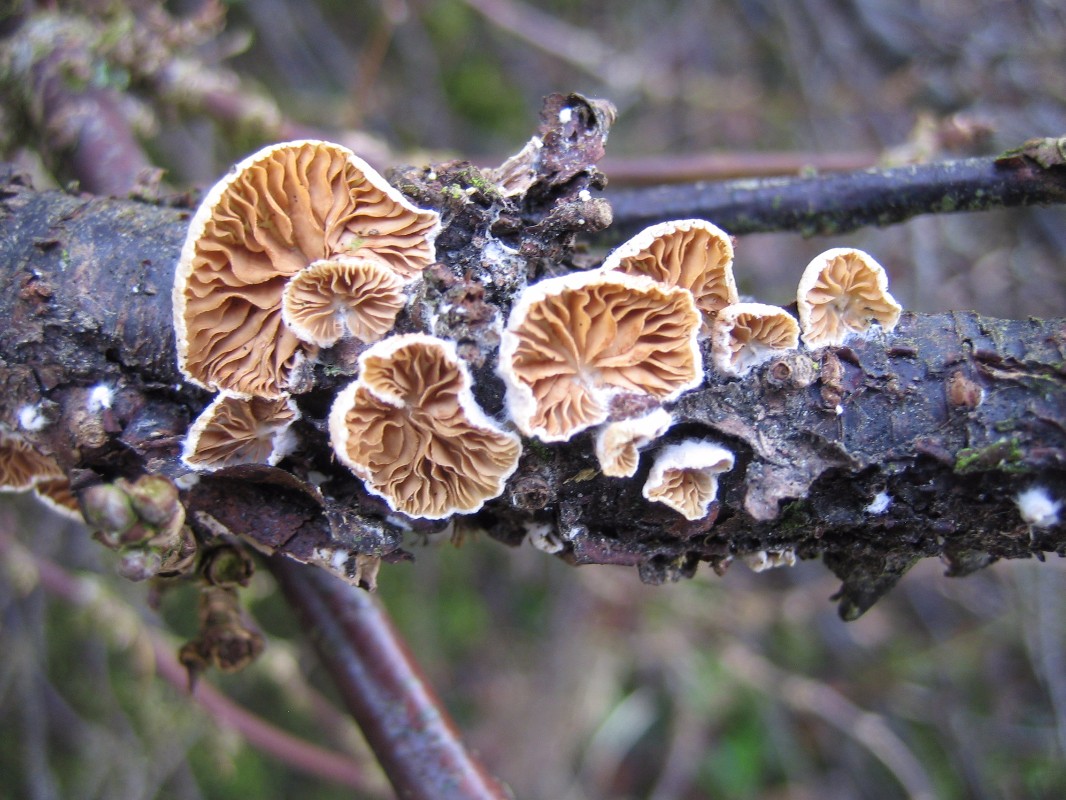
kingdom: Fungi
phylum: Basidiomycota
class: Agaricomycetes
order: Agaricales
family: Crepidotaceae
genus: Crepidotus
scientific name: Crepidotus cesatii
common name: almindelig muslingesvamp
